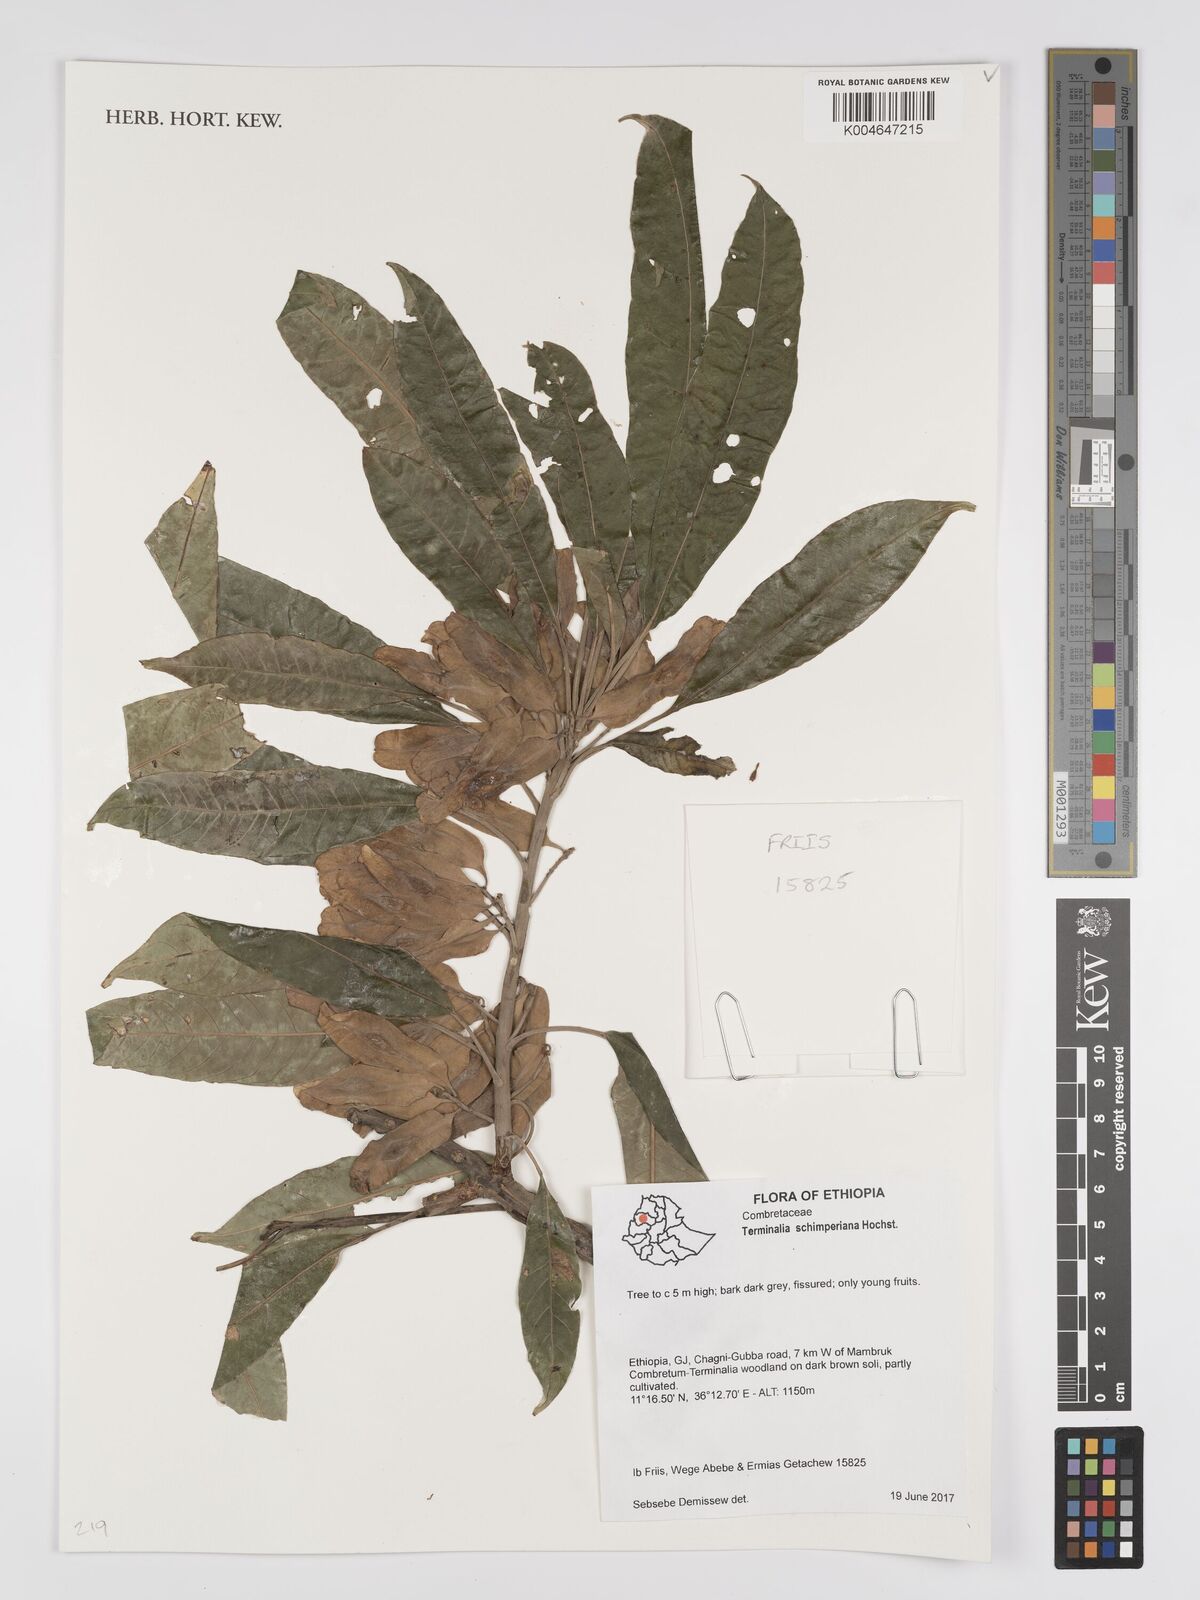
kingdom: Plantae
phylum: Tracheophyta
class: Magnoliopsida
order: Myrtales
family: Combretaceae
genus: Terminalia
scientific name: Terminalia schimperiana
